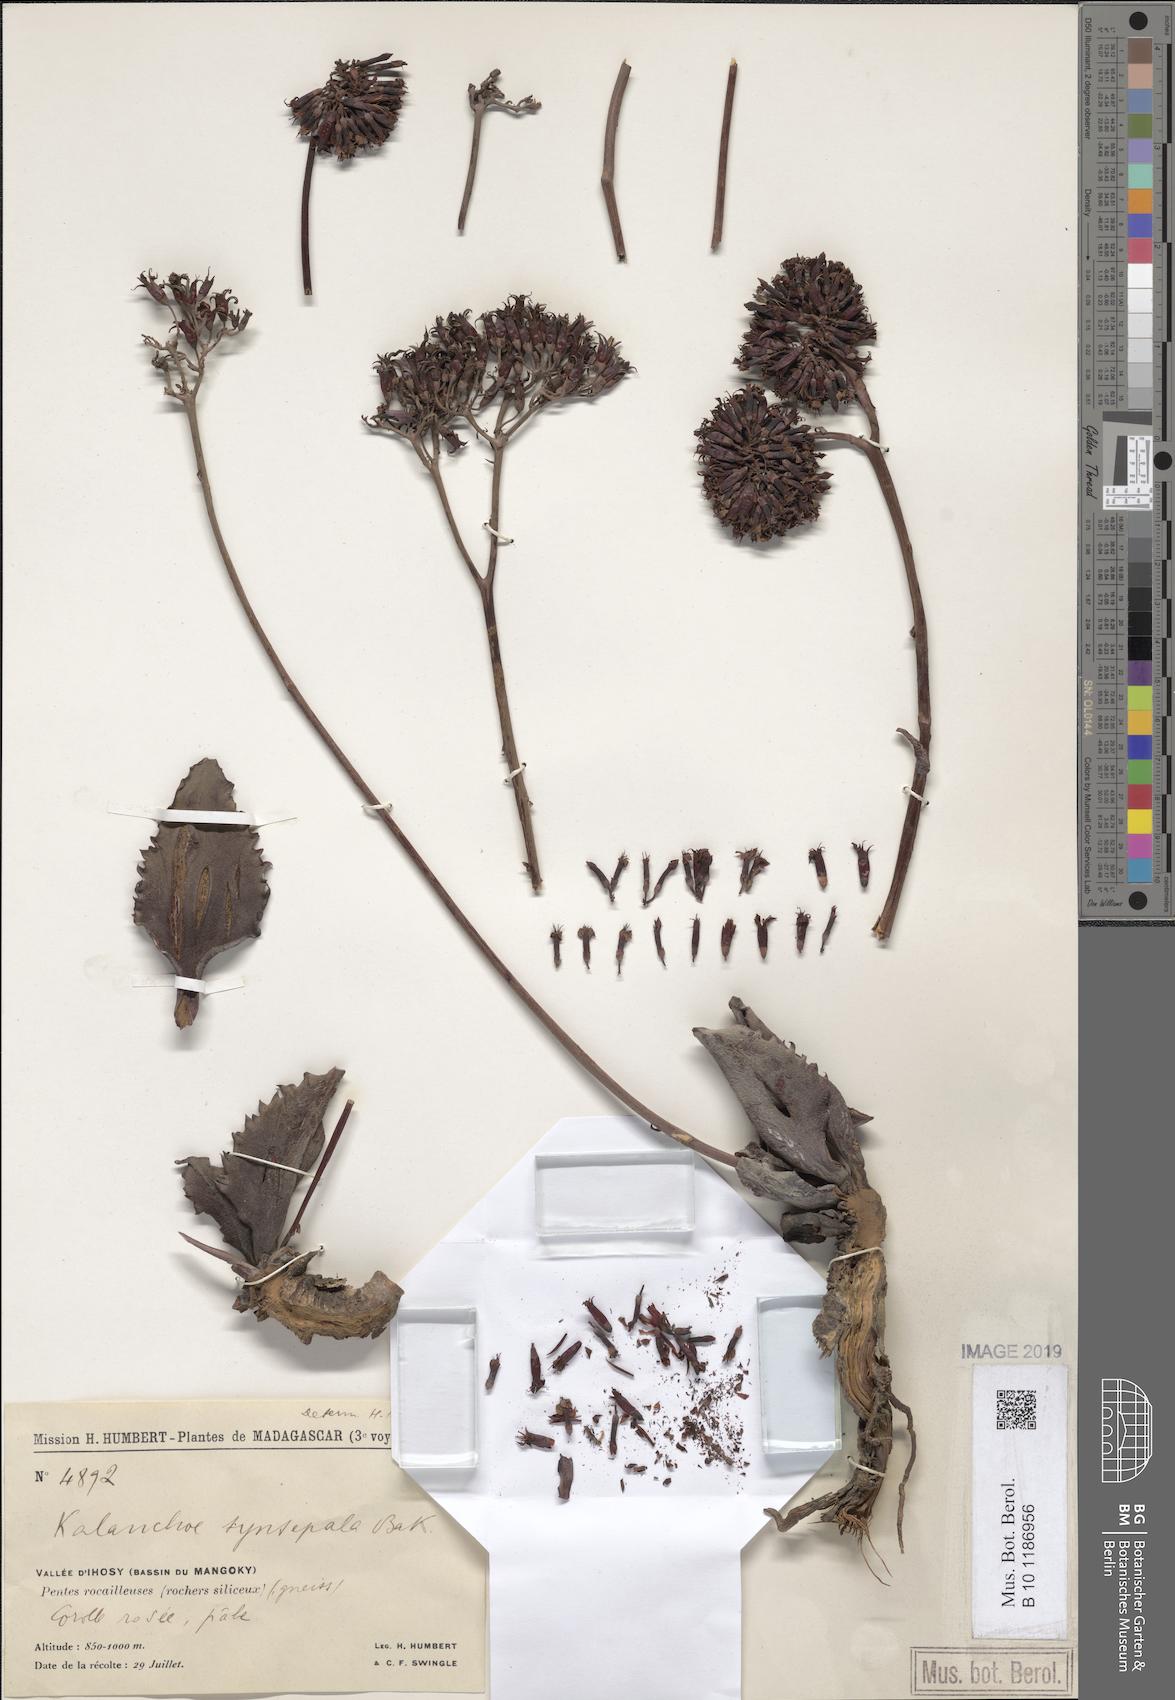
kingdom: Plantae
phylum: Tracheophyta
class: Magnoliopsida
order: Saxifragales
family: Crassulaceae
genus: Kalanchoe
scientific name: Kalanchoe synsepala
